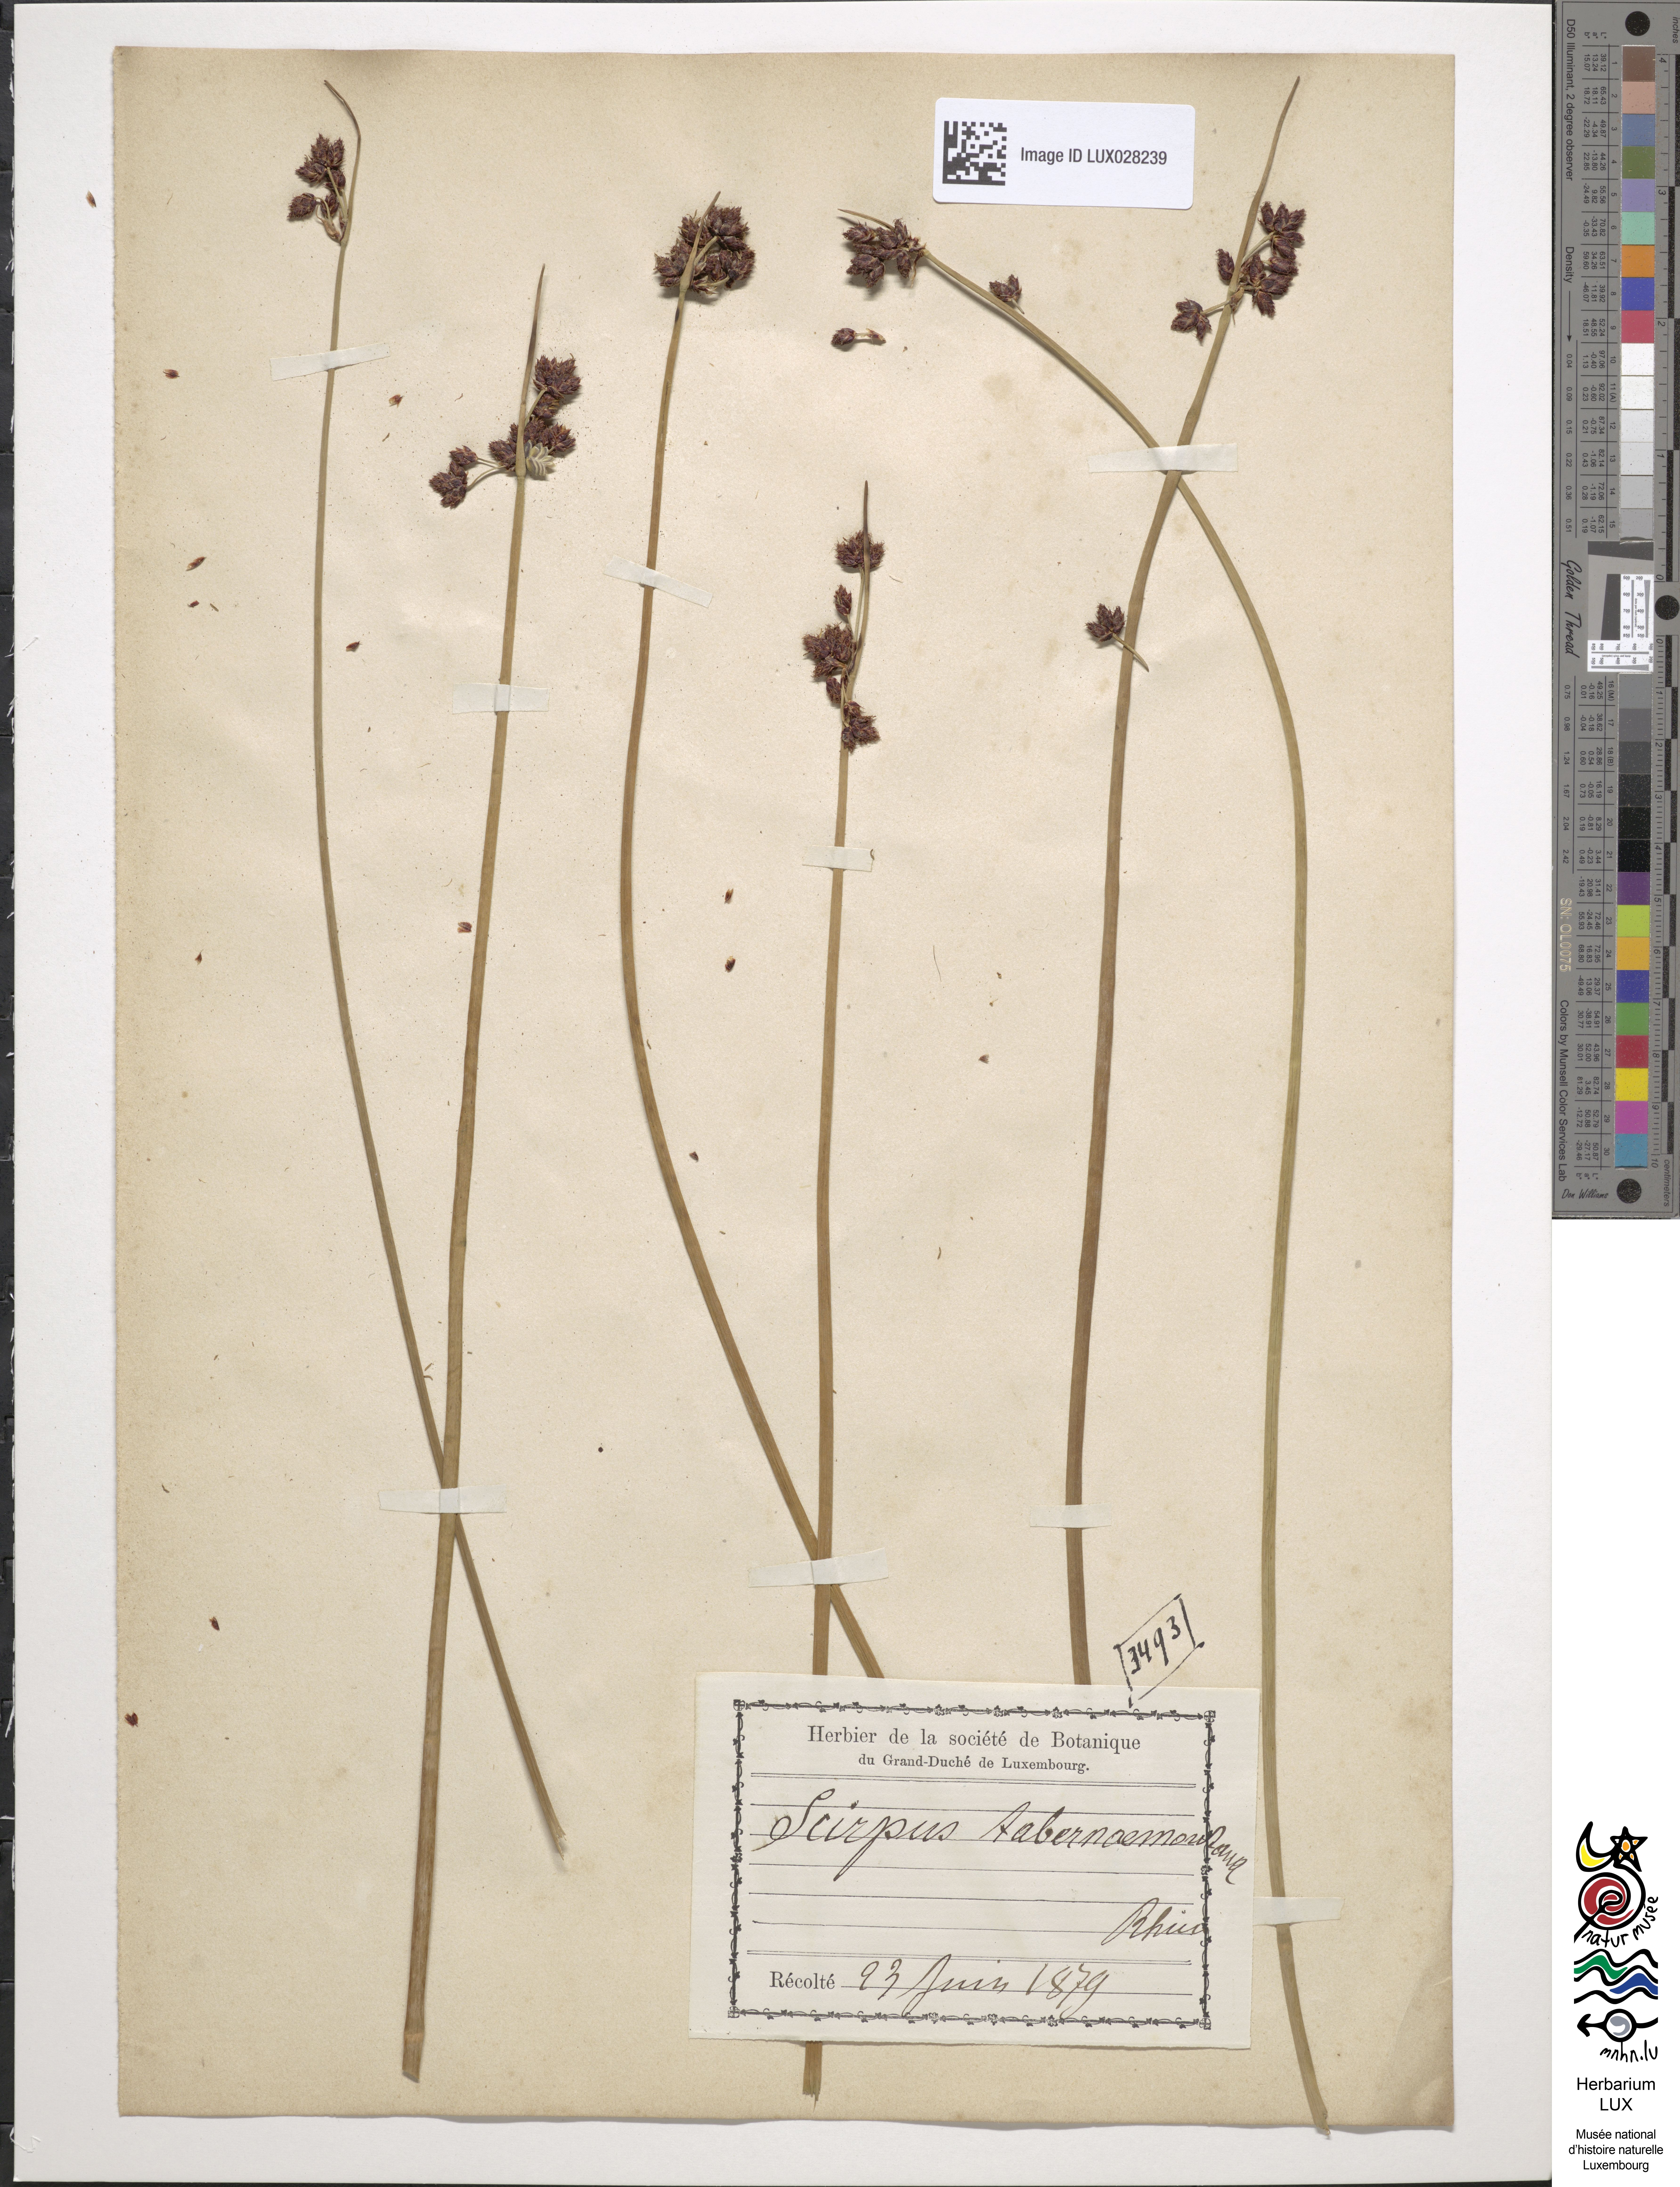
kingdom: Plantae
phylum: Tracheophyta
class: Liliopsida
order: Poales
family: Cyperaceae
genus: Schoenoplectus
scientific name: Schoenoplectus tabernaemontani
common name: Grey club-rush
